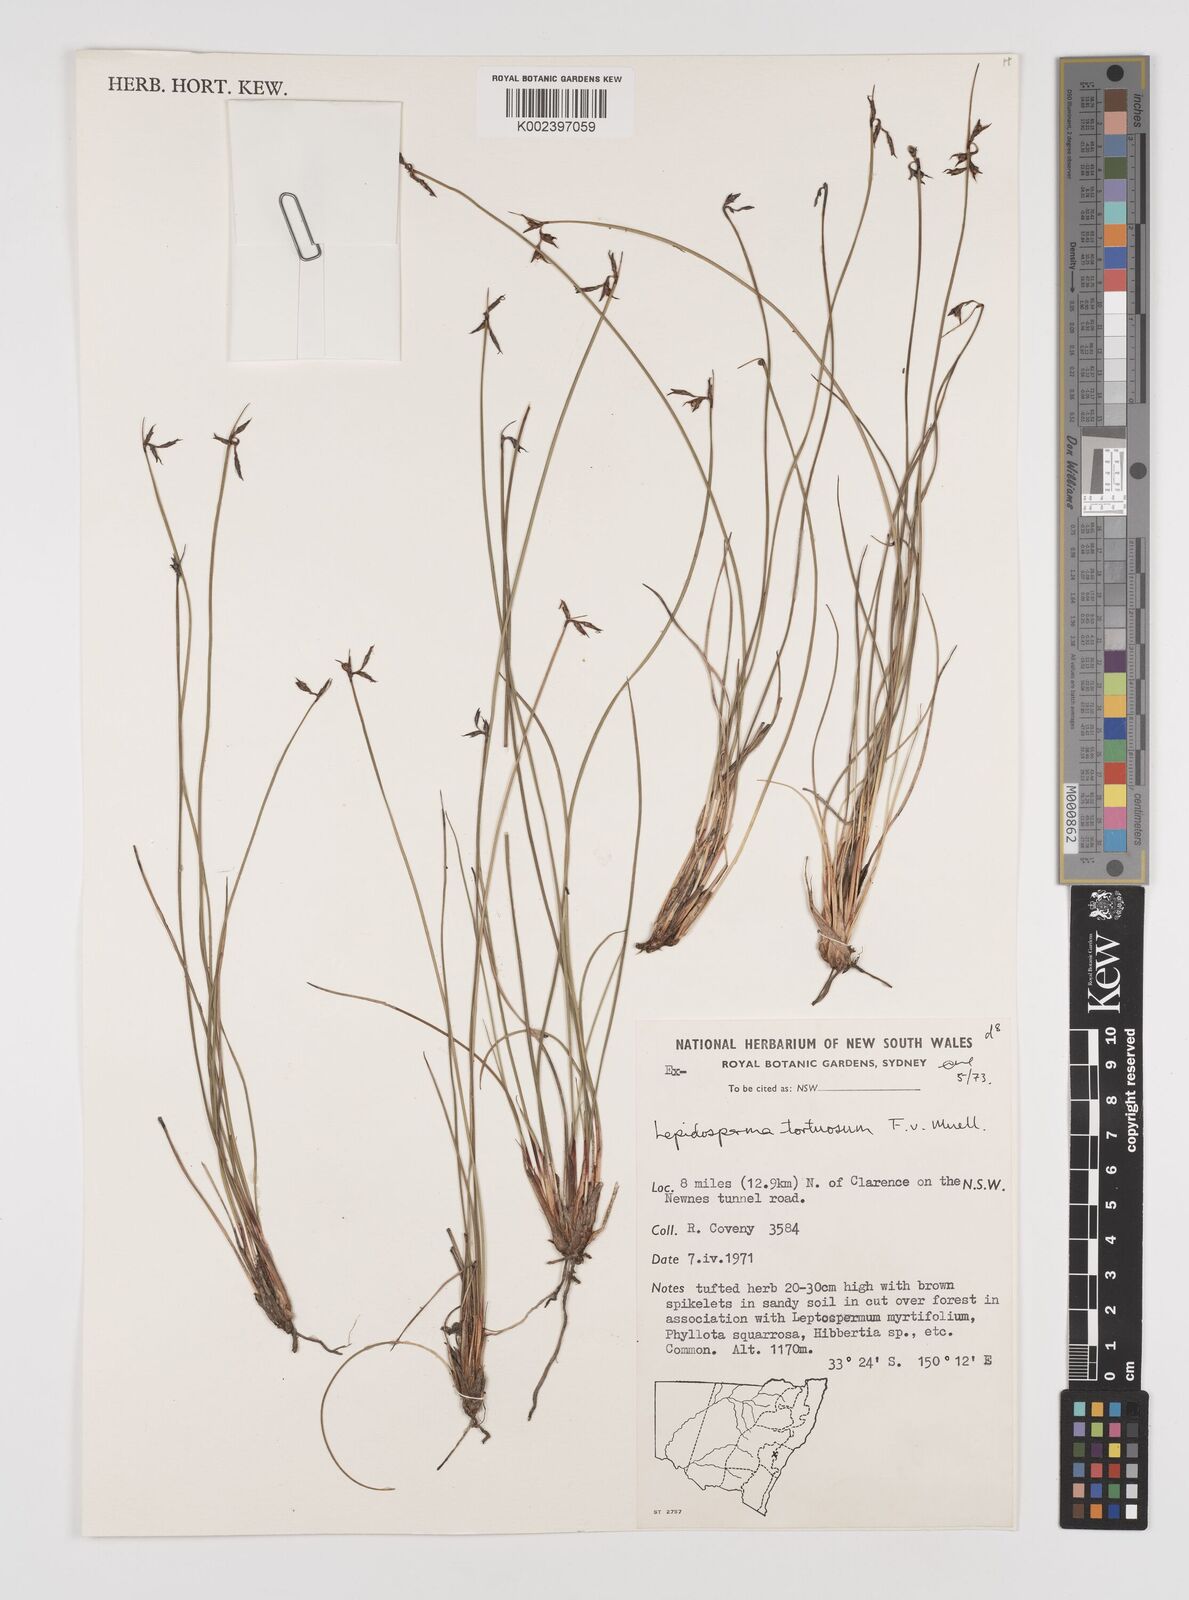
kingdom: Plantae
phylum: Tracheophyta
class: Liliopsida
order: Poales
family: Cyperaceae
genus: Lepidosperma
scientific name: Lepidosperma tortuosum
